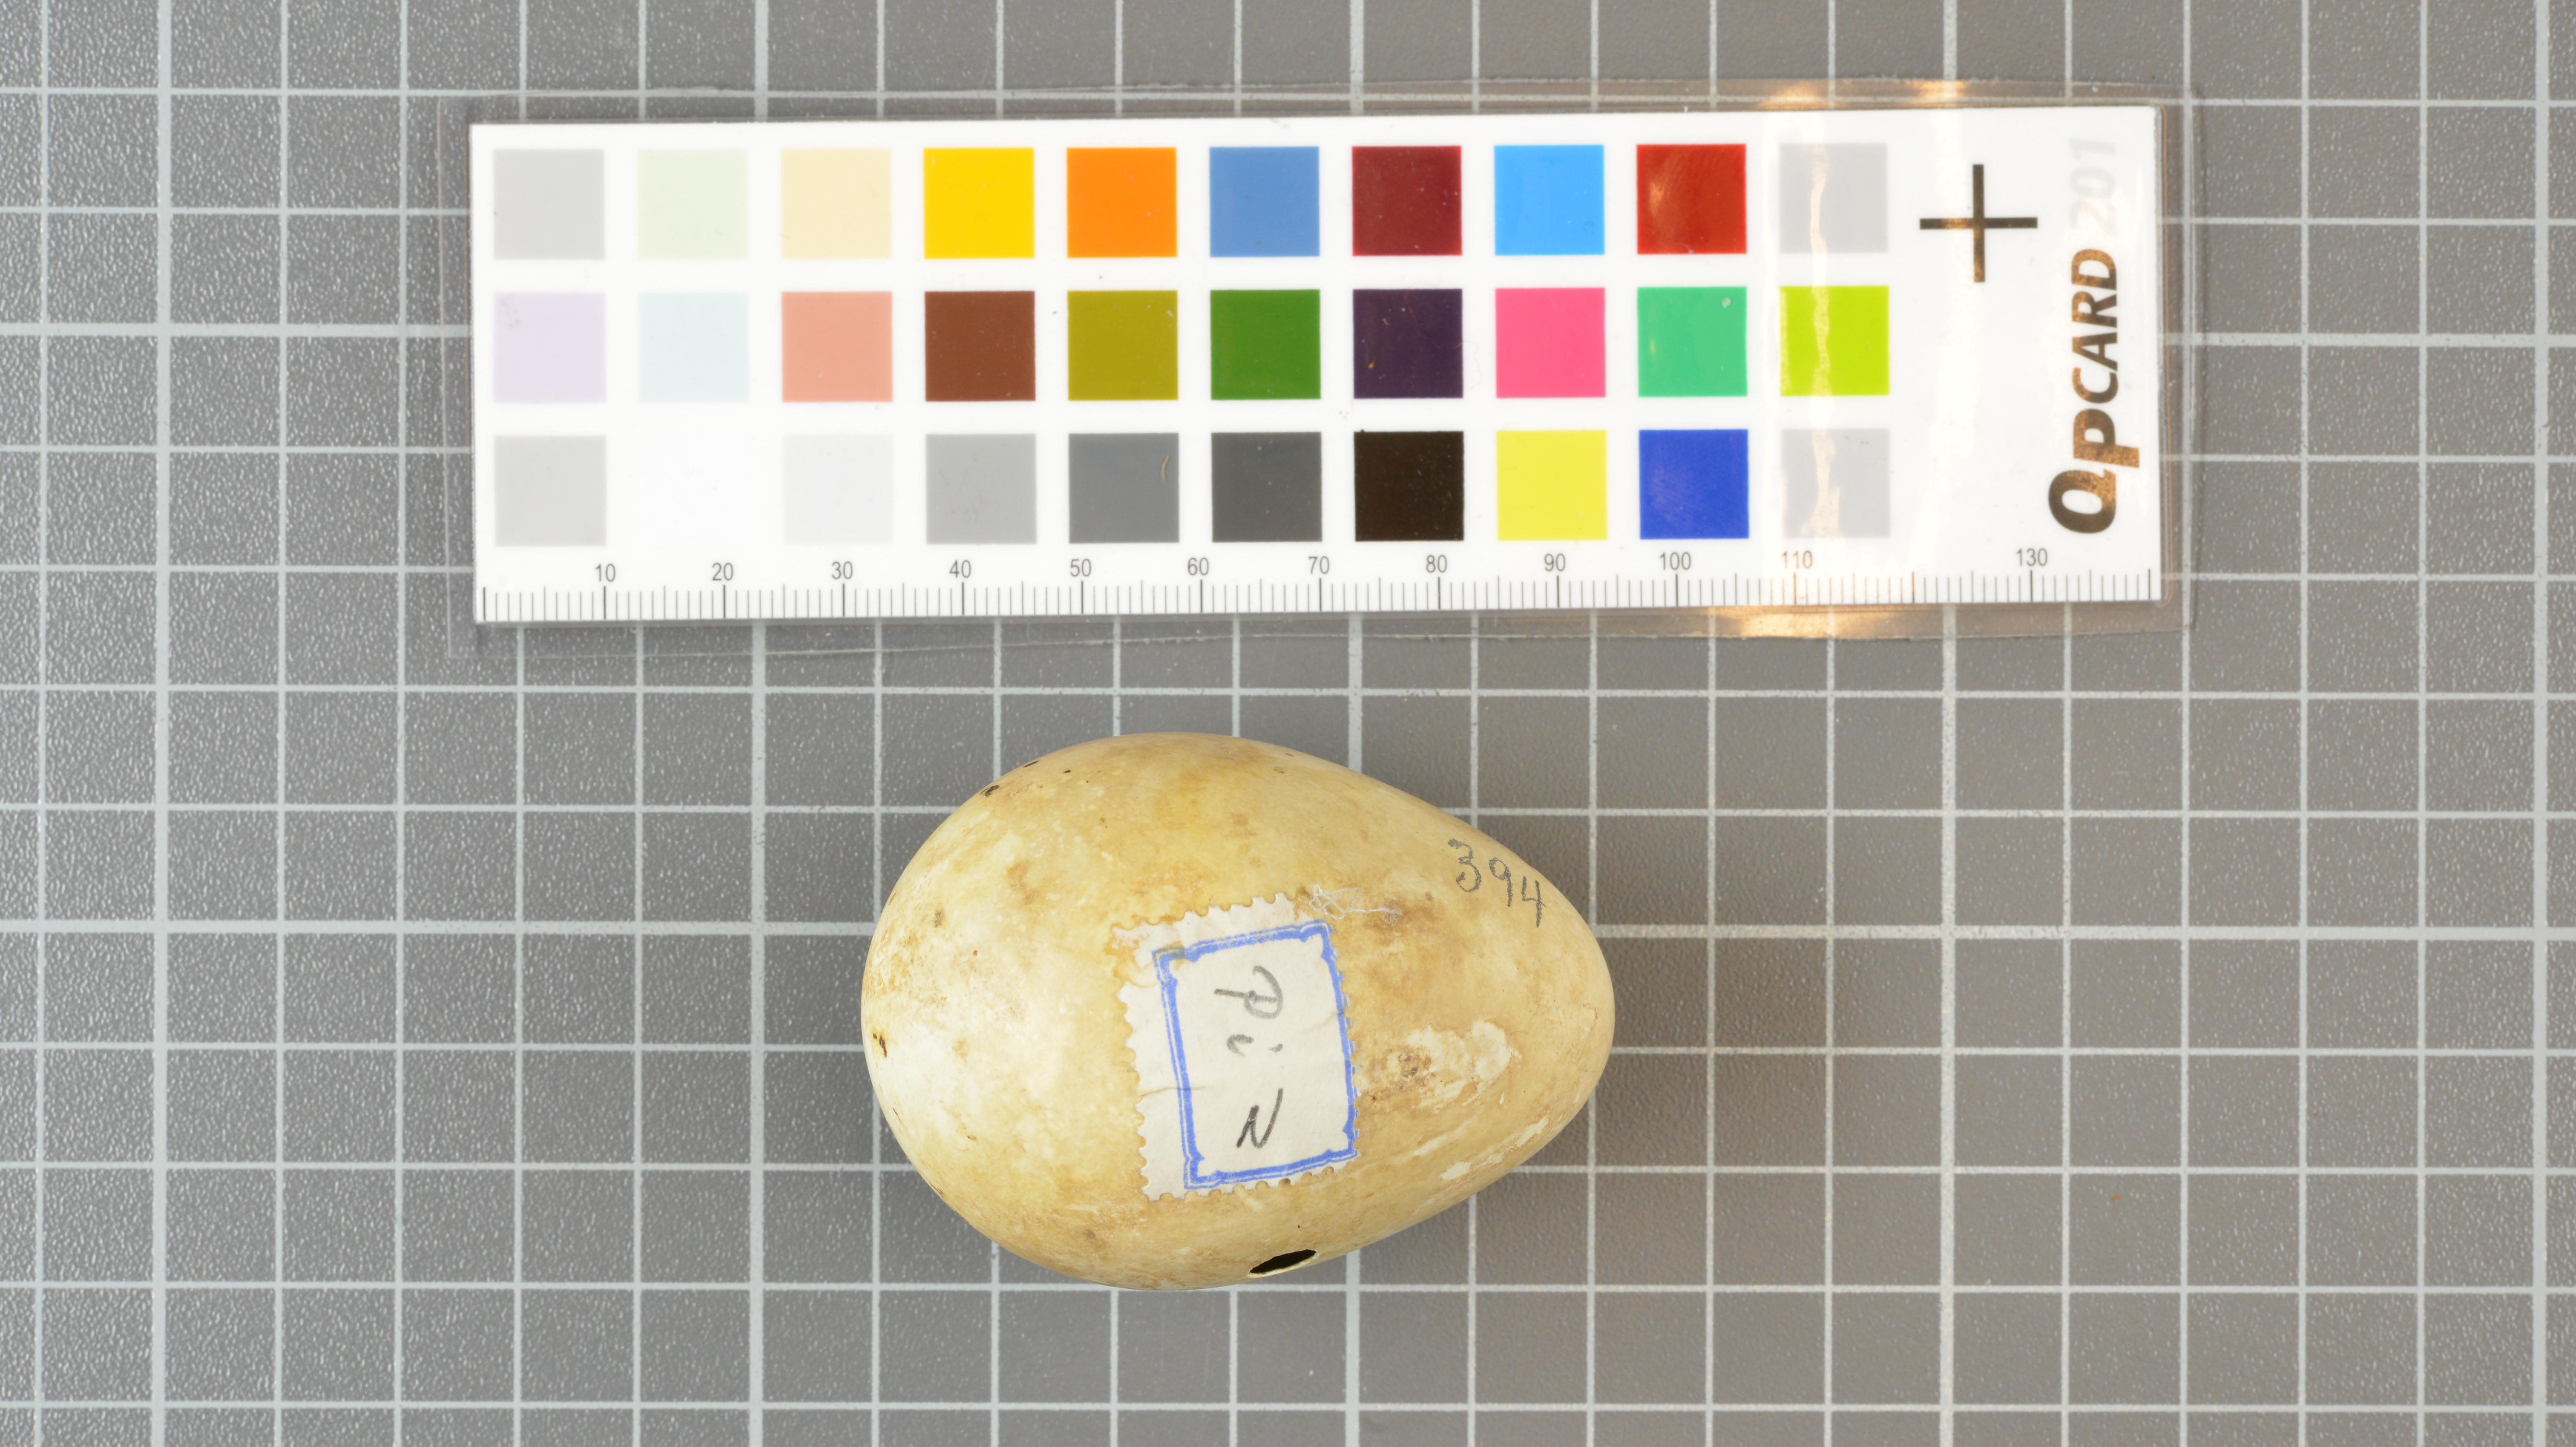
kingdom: Animalia
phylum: Chordata
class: Aves
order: Sphenisciformes
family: Spheniscidae
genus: Eudyptes
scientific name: Eudyptes moseleyi
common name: Northern rockhopper penguin
